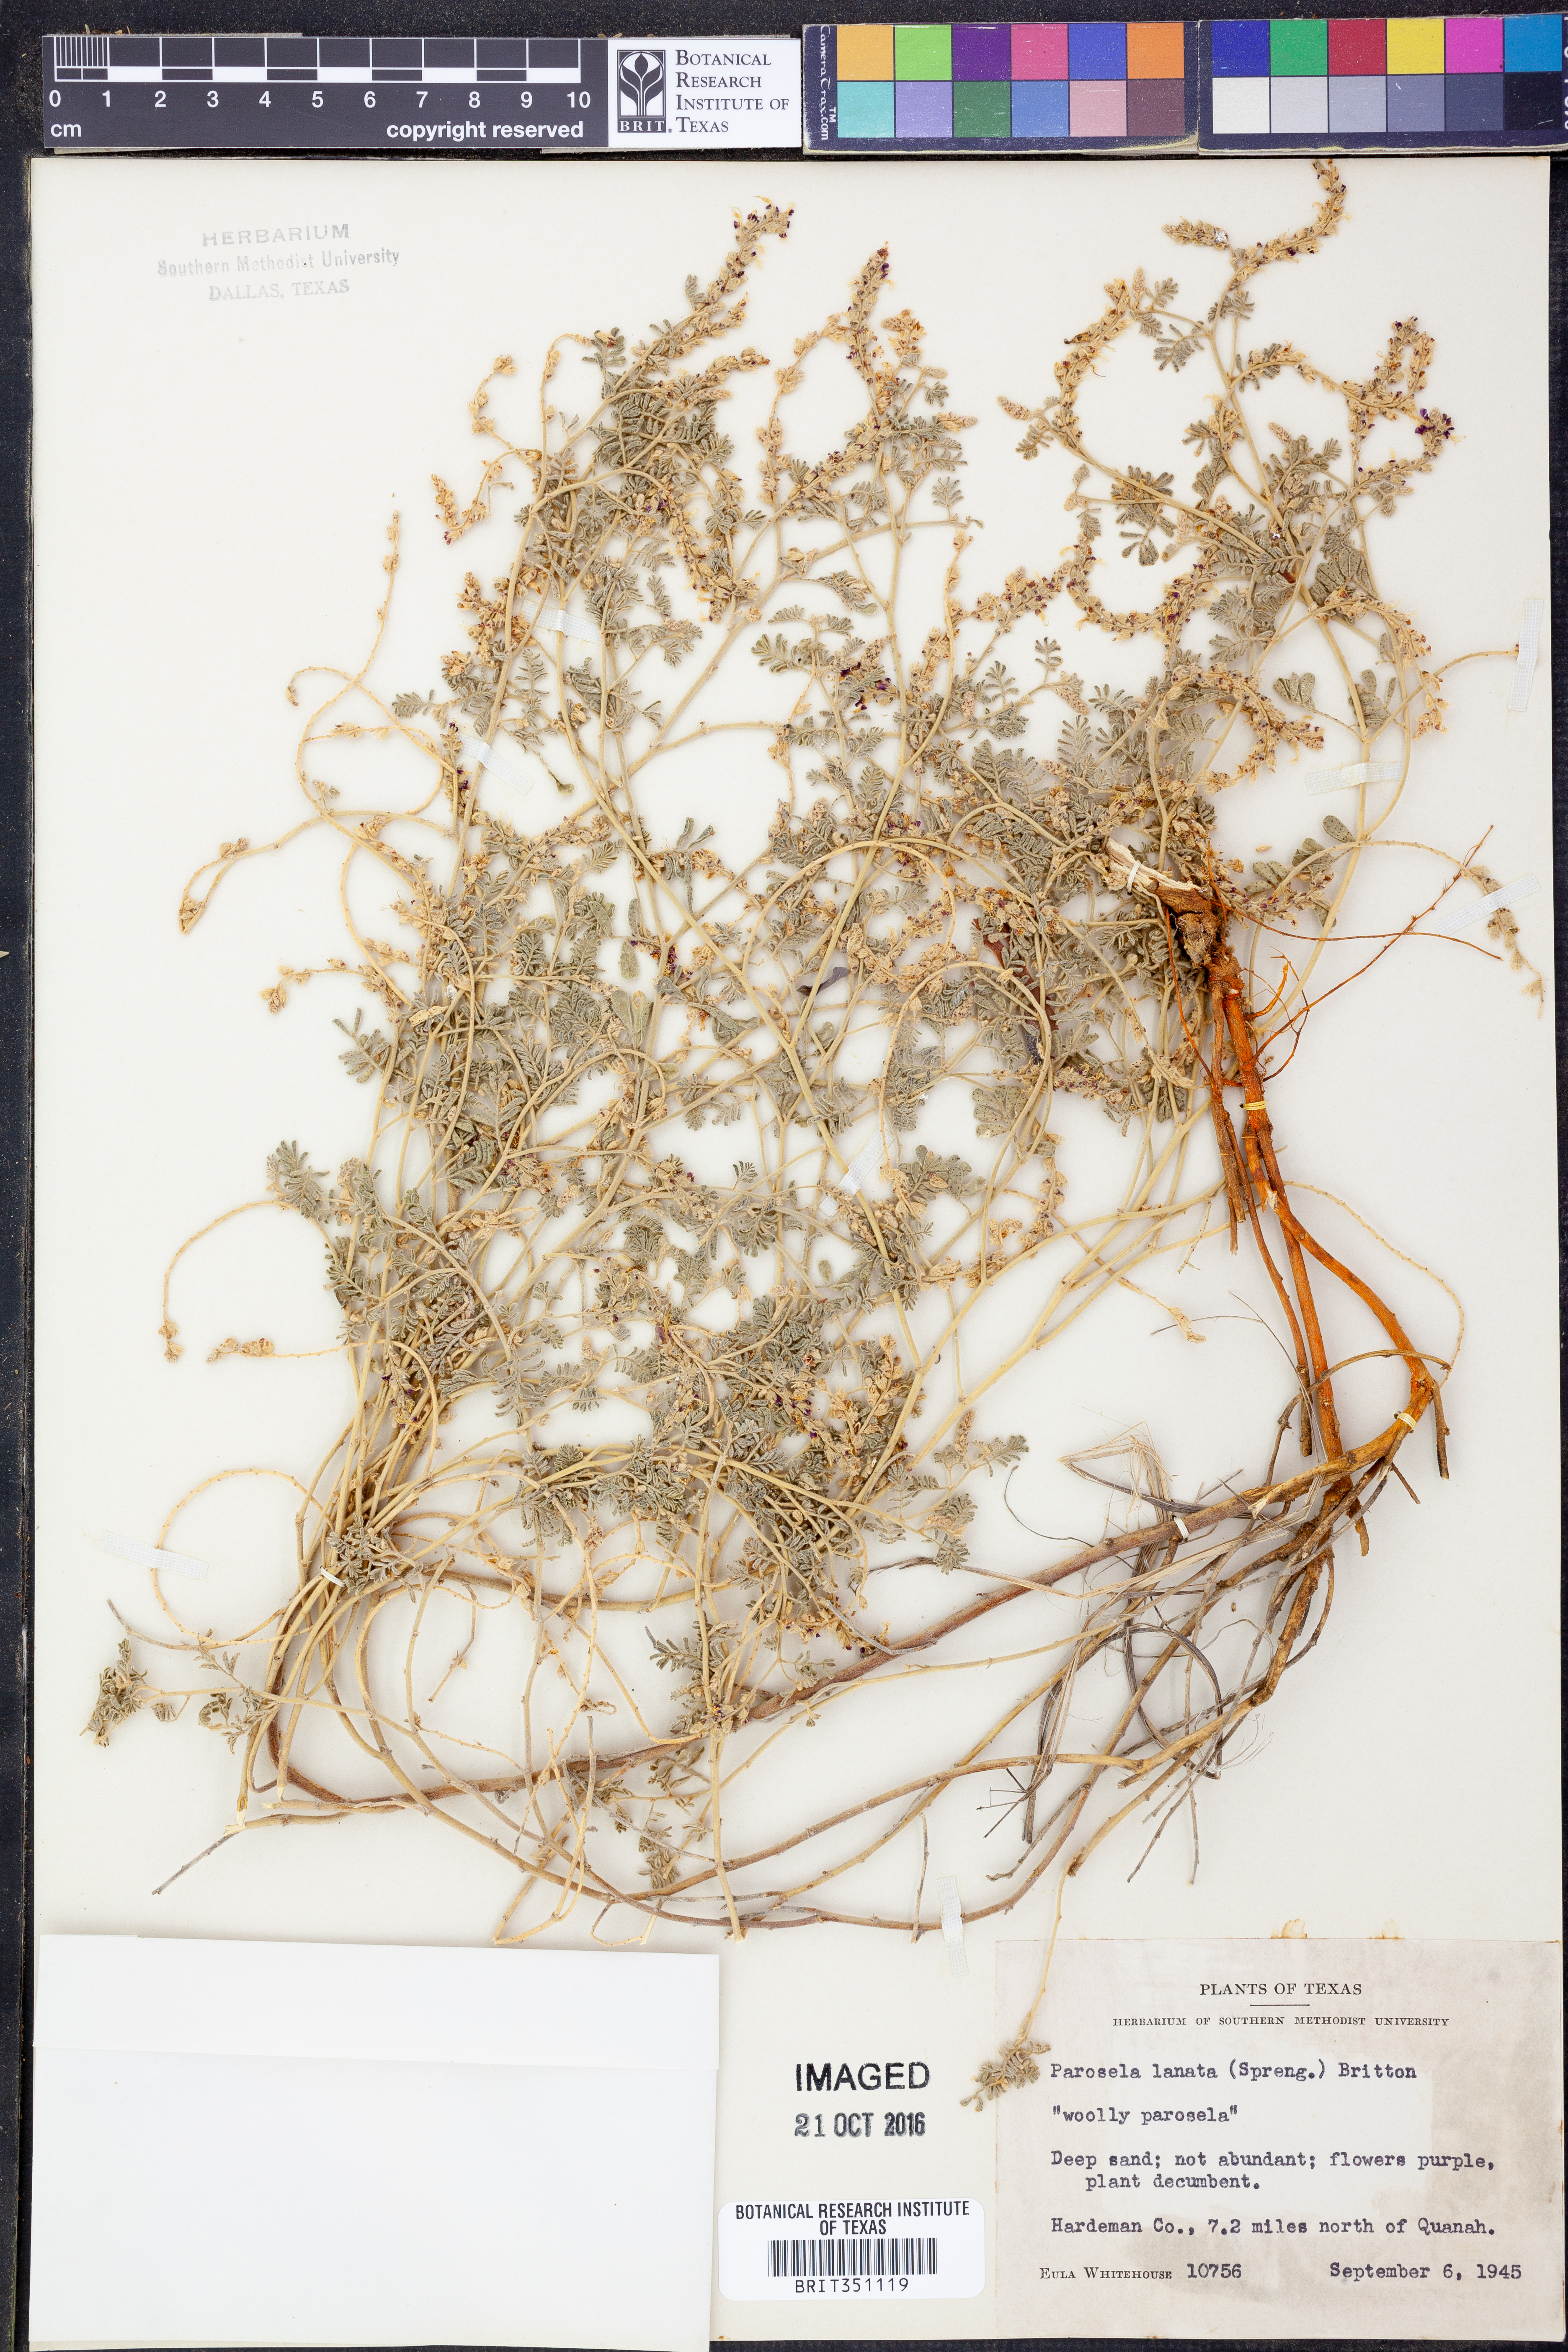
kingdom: Plantae
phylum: Tracheophyta
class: Magnoliopsida
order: Fabales
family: Fabaceae
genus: Dalea
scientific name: Dalea lanata
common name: Woolly dalea
